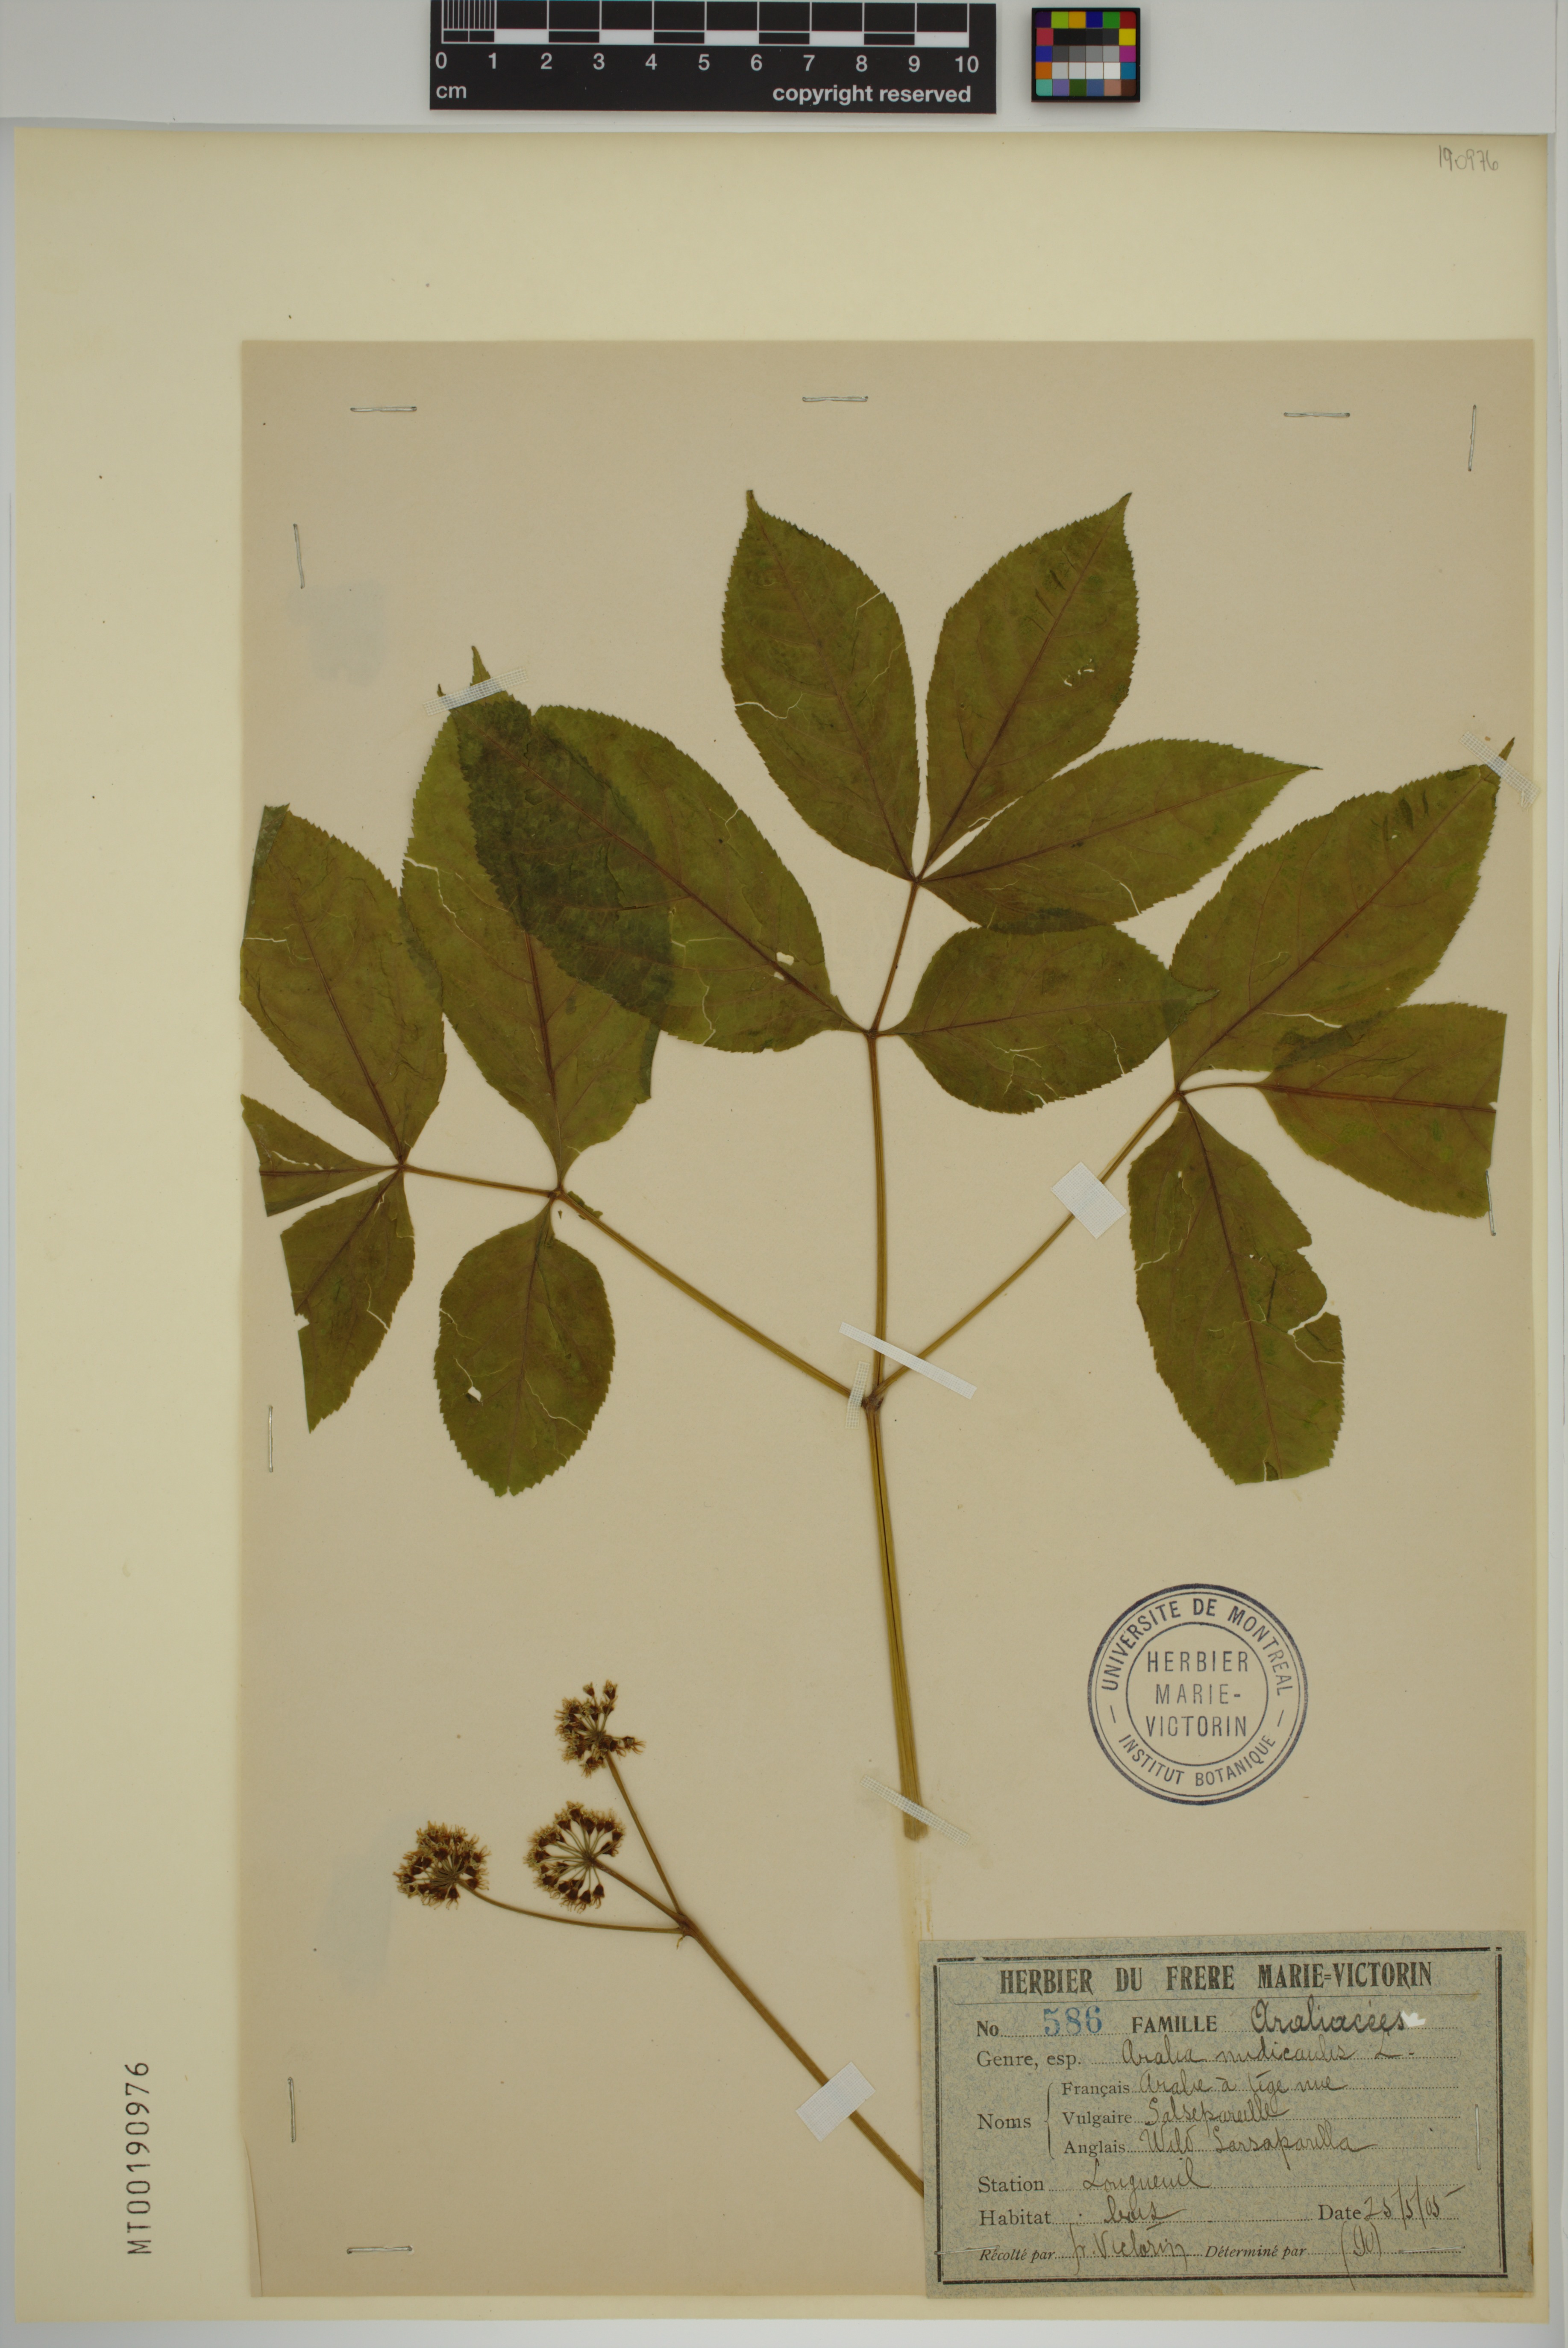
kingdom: Plantae
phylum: Tracheophyta
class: Magnoliopsida
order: Apiales
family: Araliaceae
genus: Aralia
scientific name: Aralia nudicaulis
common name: Wild sarsaparilla
